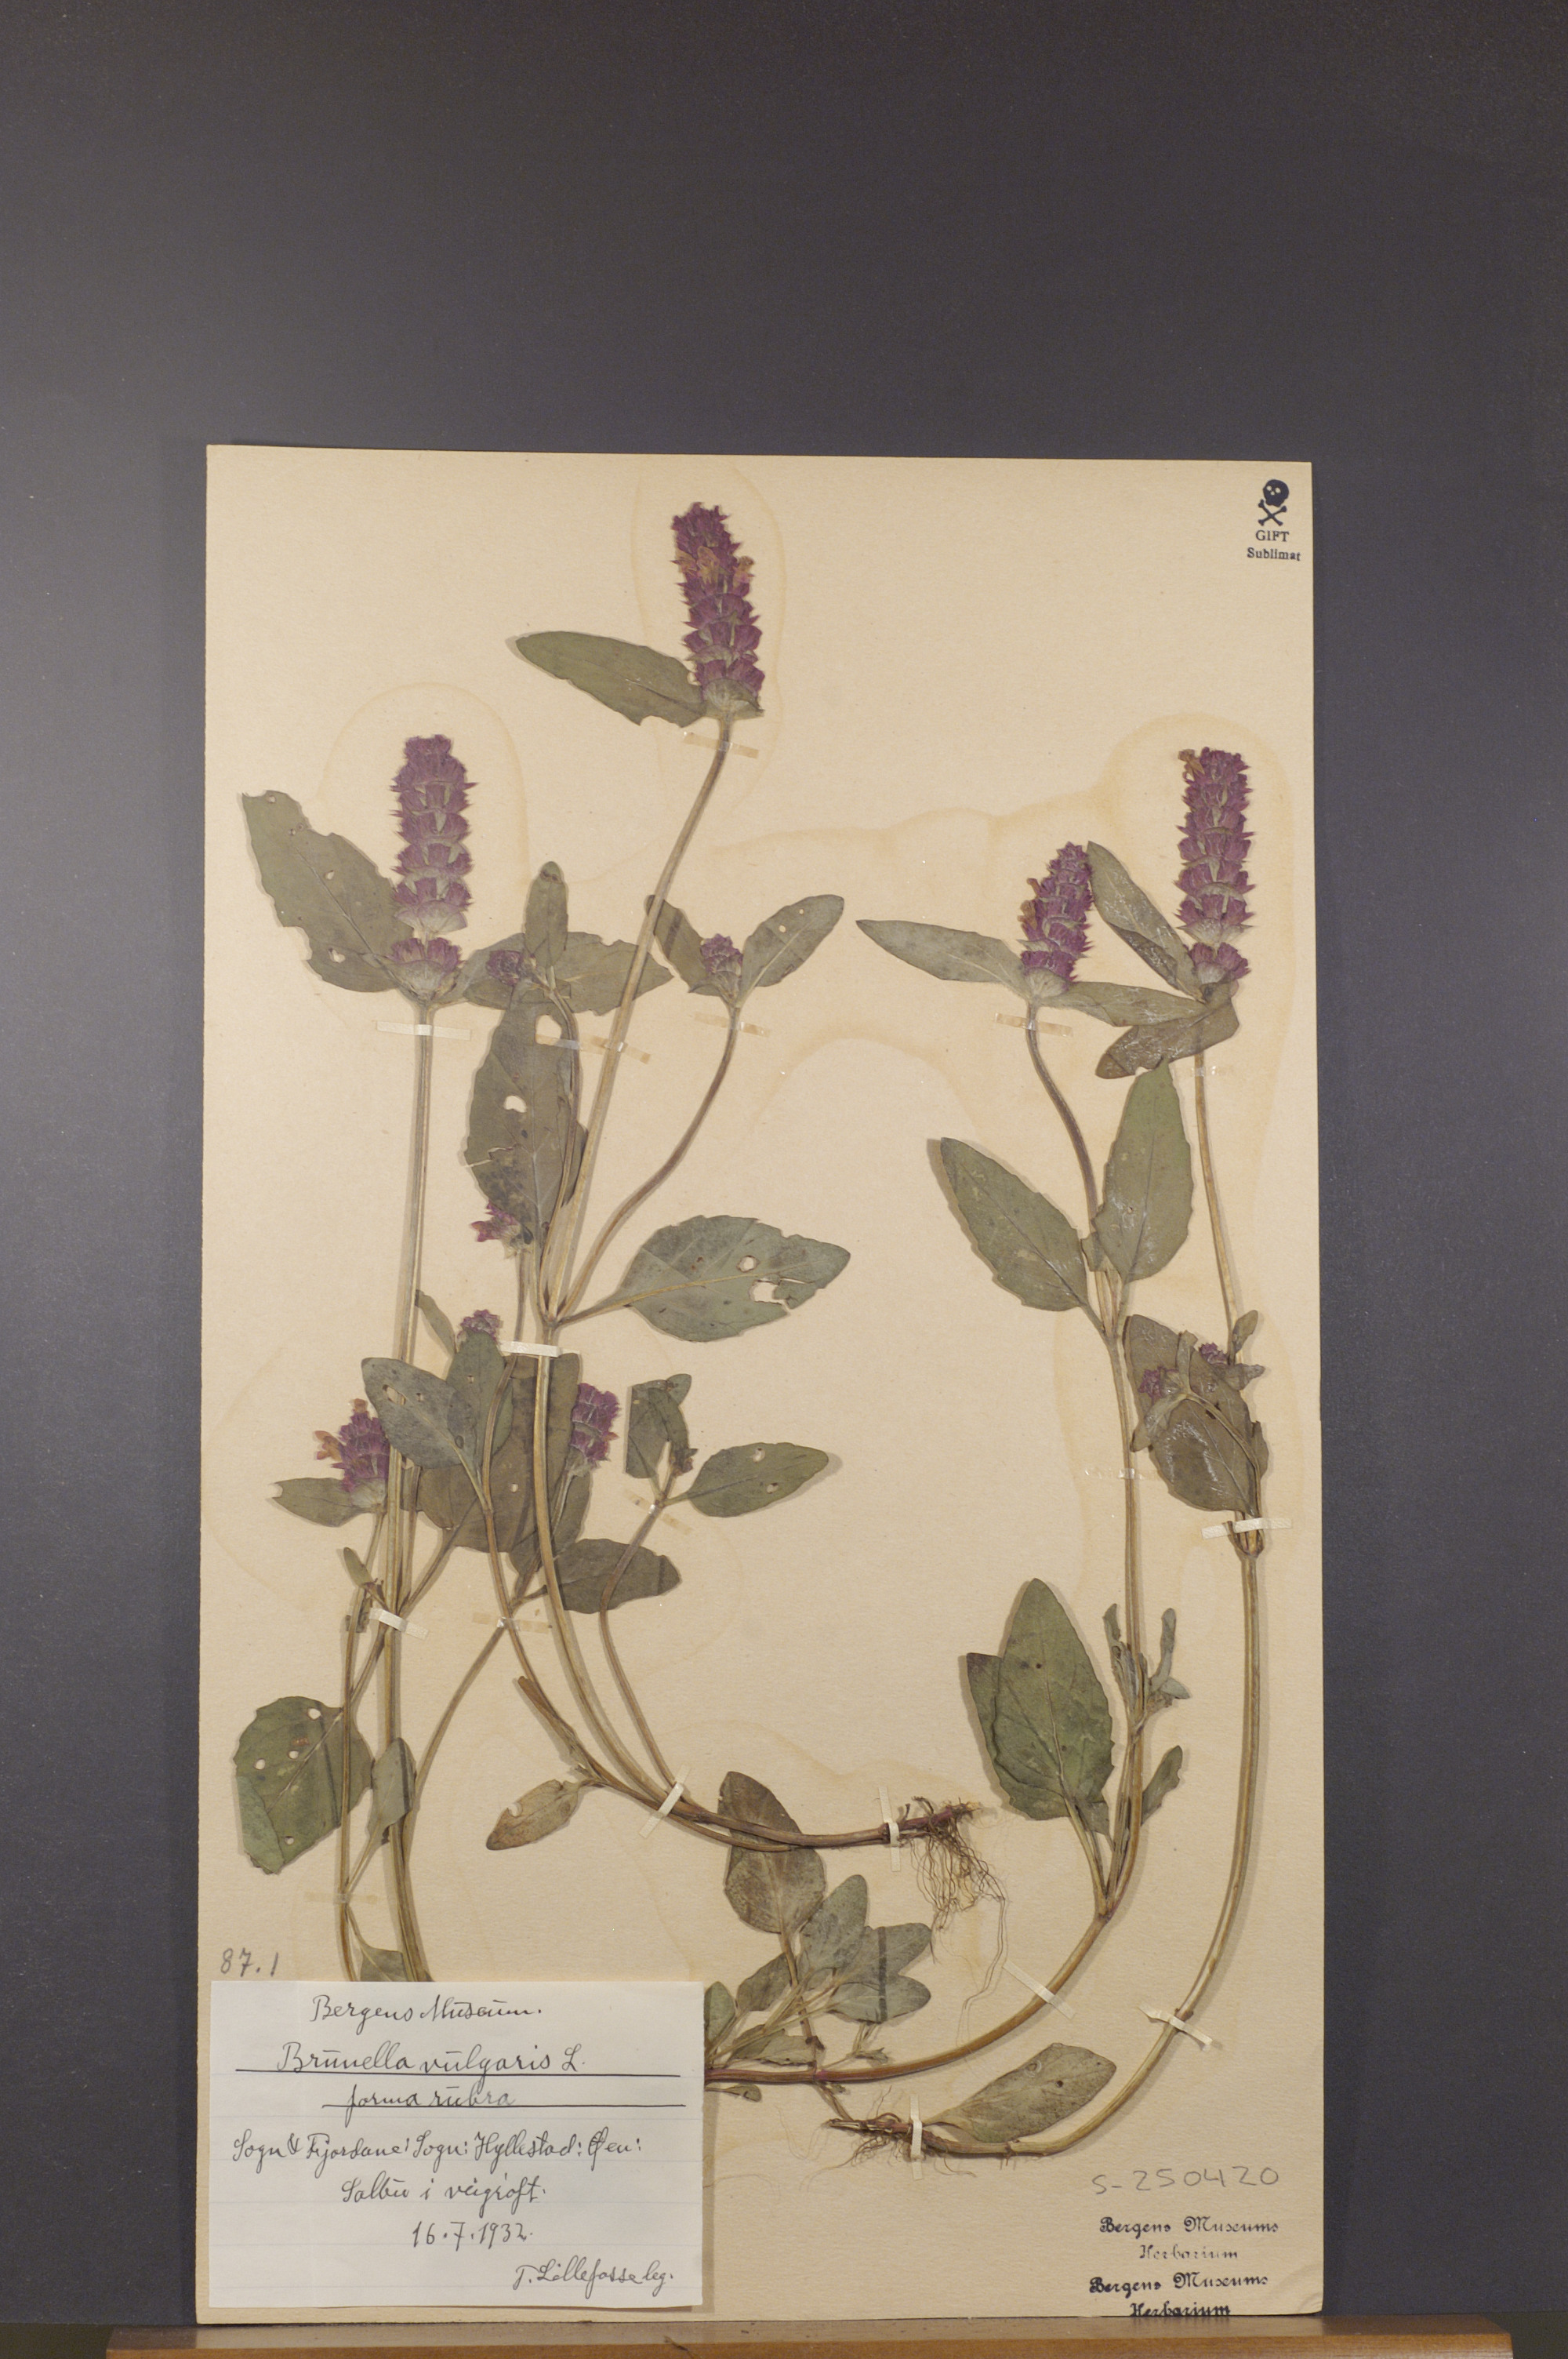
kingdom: Plantae
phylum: Tracheophyta
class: Magnoliopsida
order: Lamiales
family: Lamiaceae
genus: Prunella
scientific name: Prunella vulgaris
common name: Heal-all
